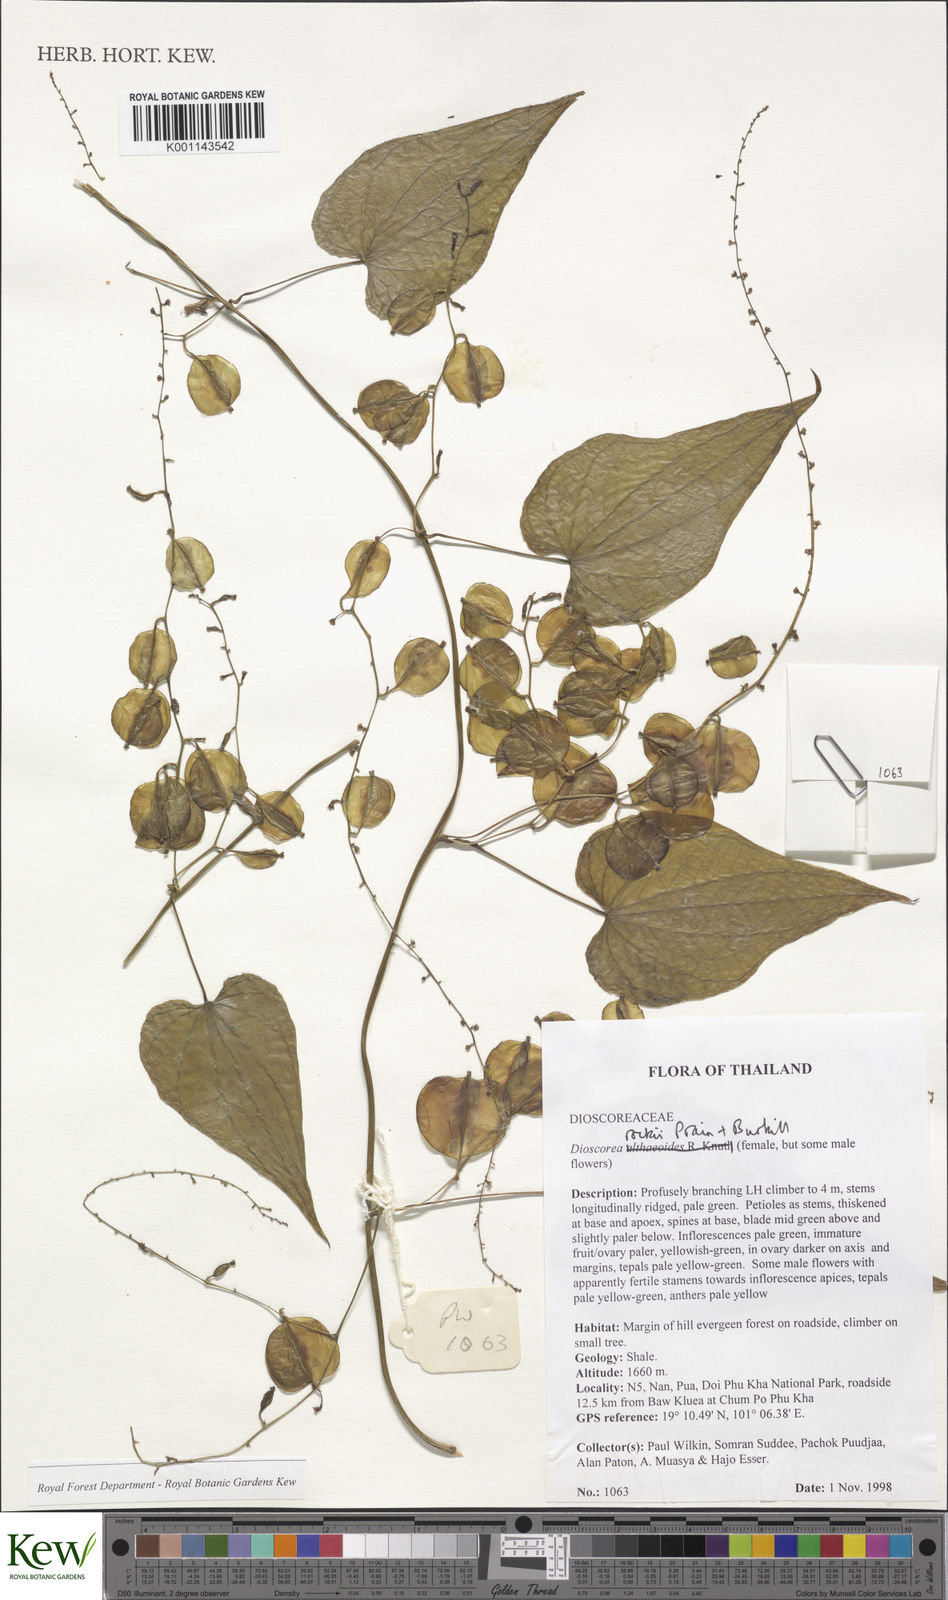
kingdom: Plantae
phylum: Tracheophyta
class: Liliopsida
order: Dioscoreales
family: Dioscoreaceae
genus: Dioscorea
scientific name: Dioscorea rockii
